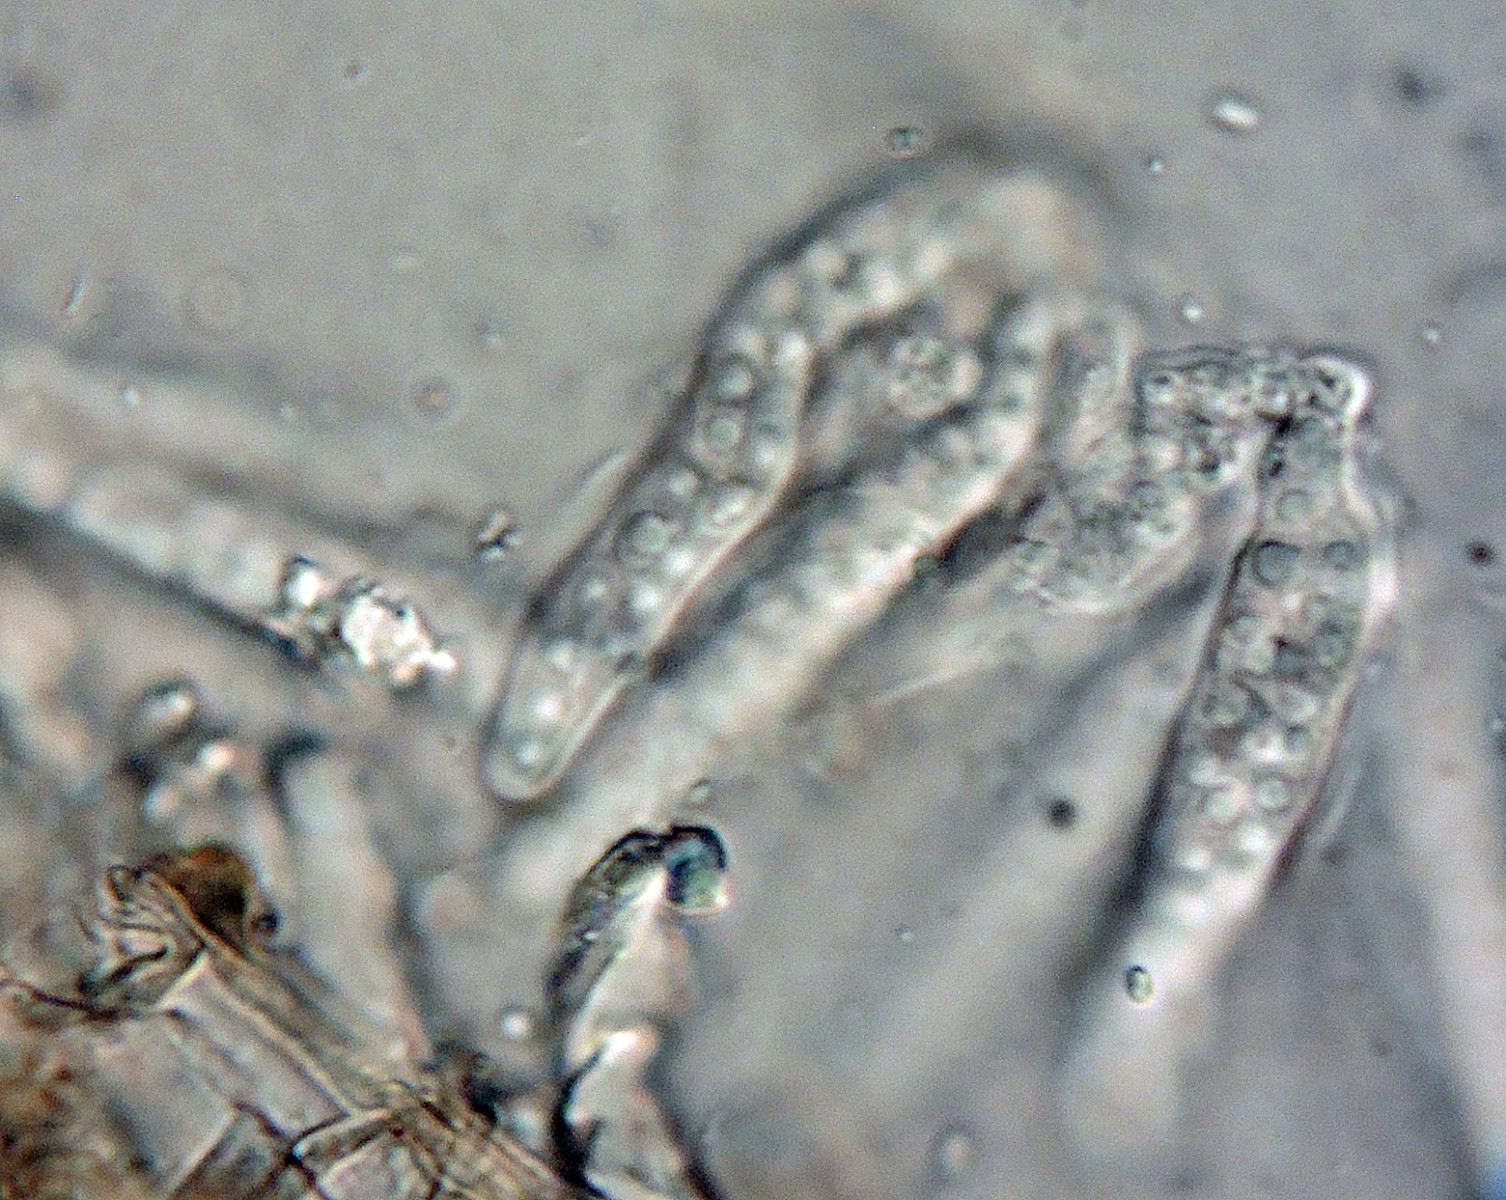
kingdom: Fungi
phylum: Ascomycota
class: Dothideomycetes
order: Microthyriales
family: Micropeltidaceae
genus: Stomiopeltis
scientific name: Stomiopeltis cupressicola
